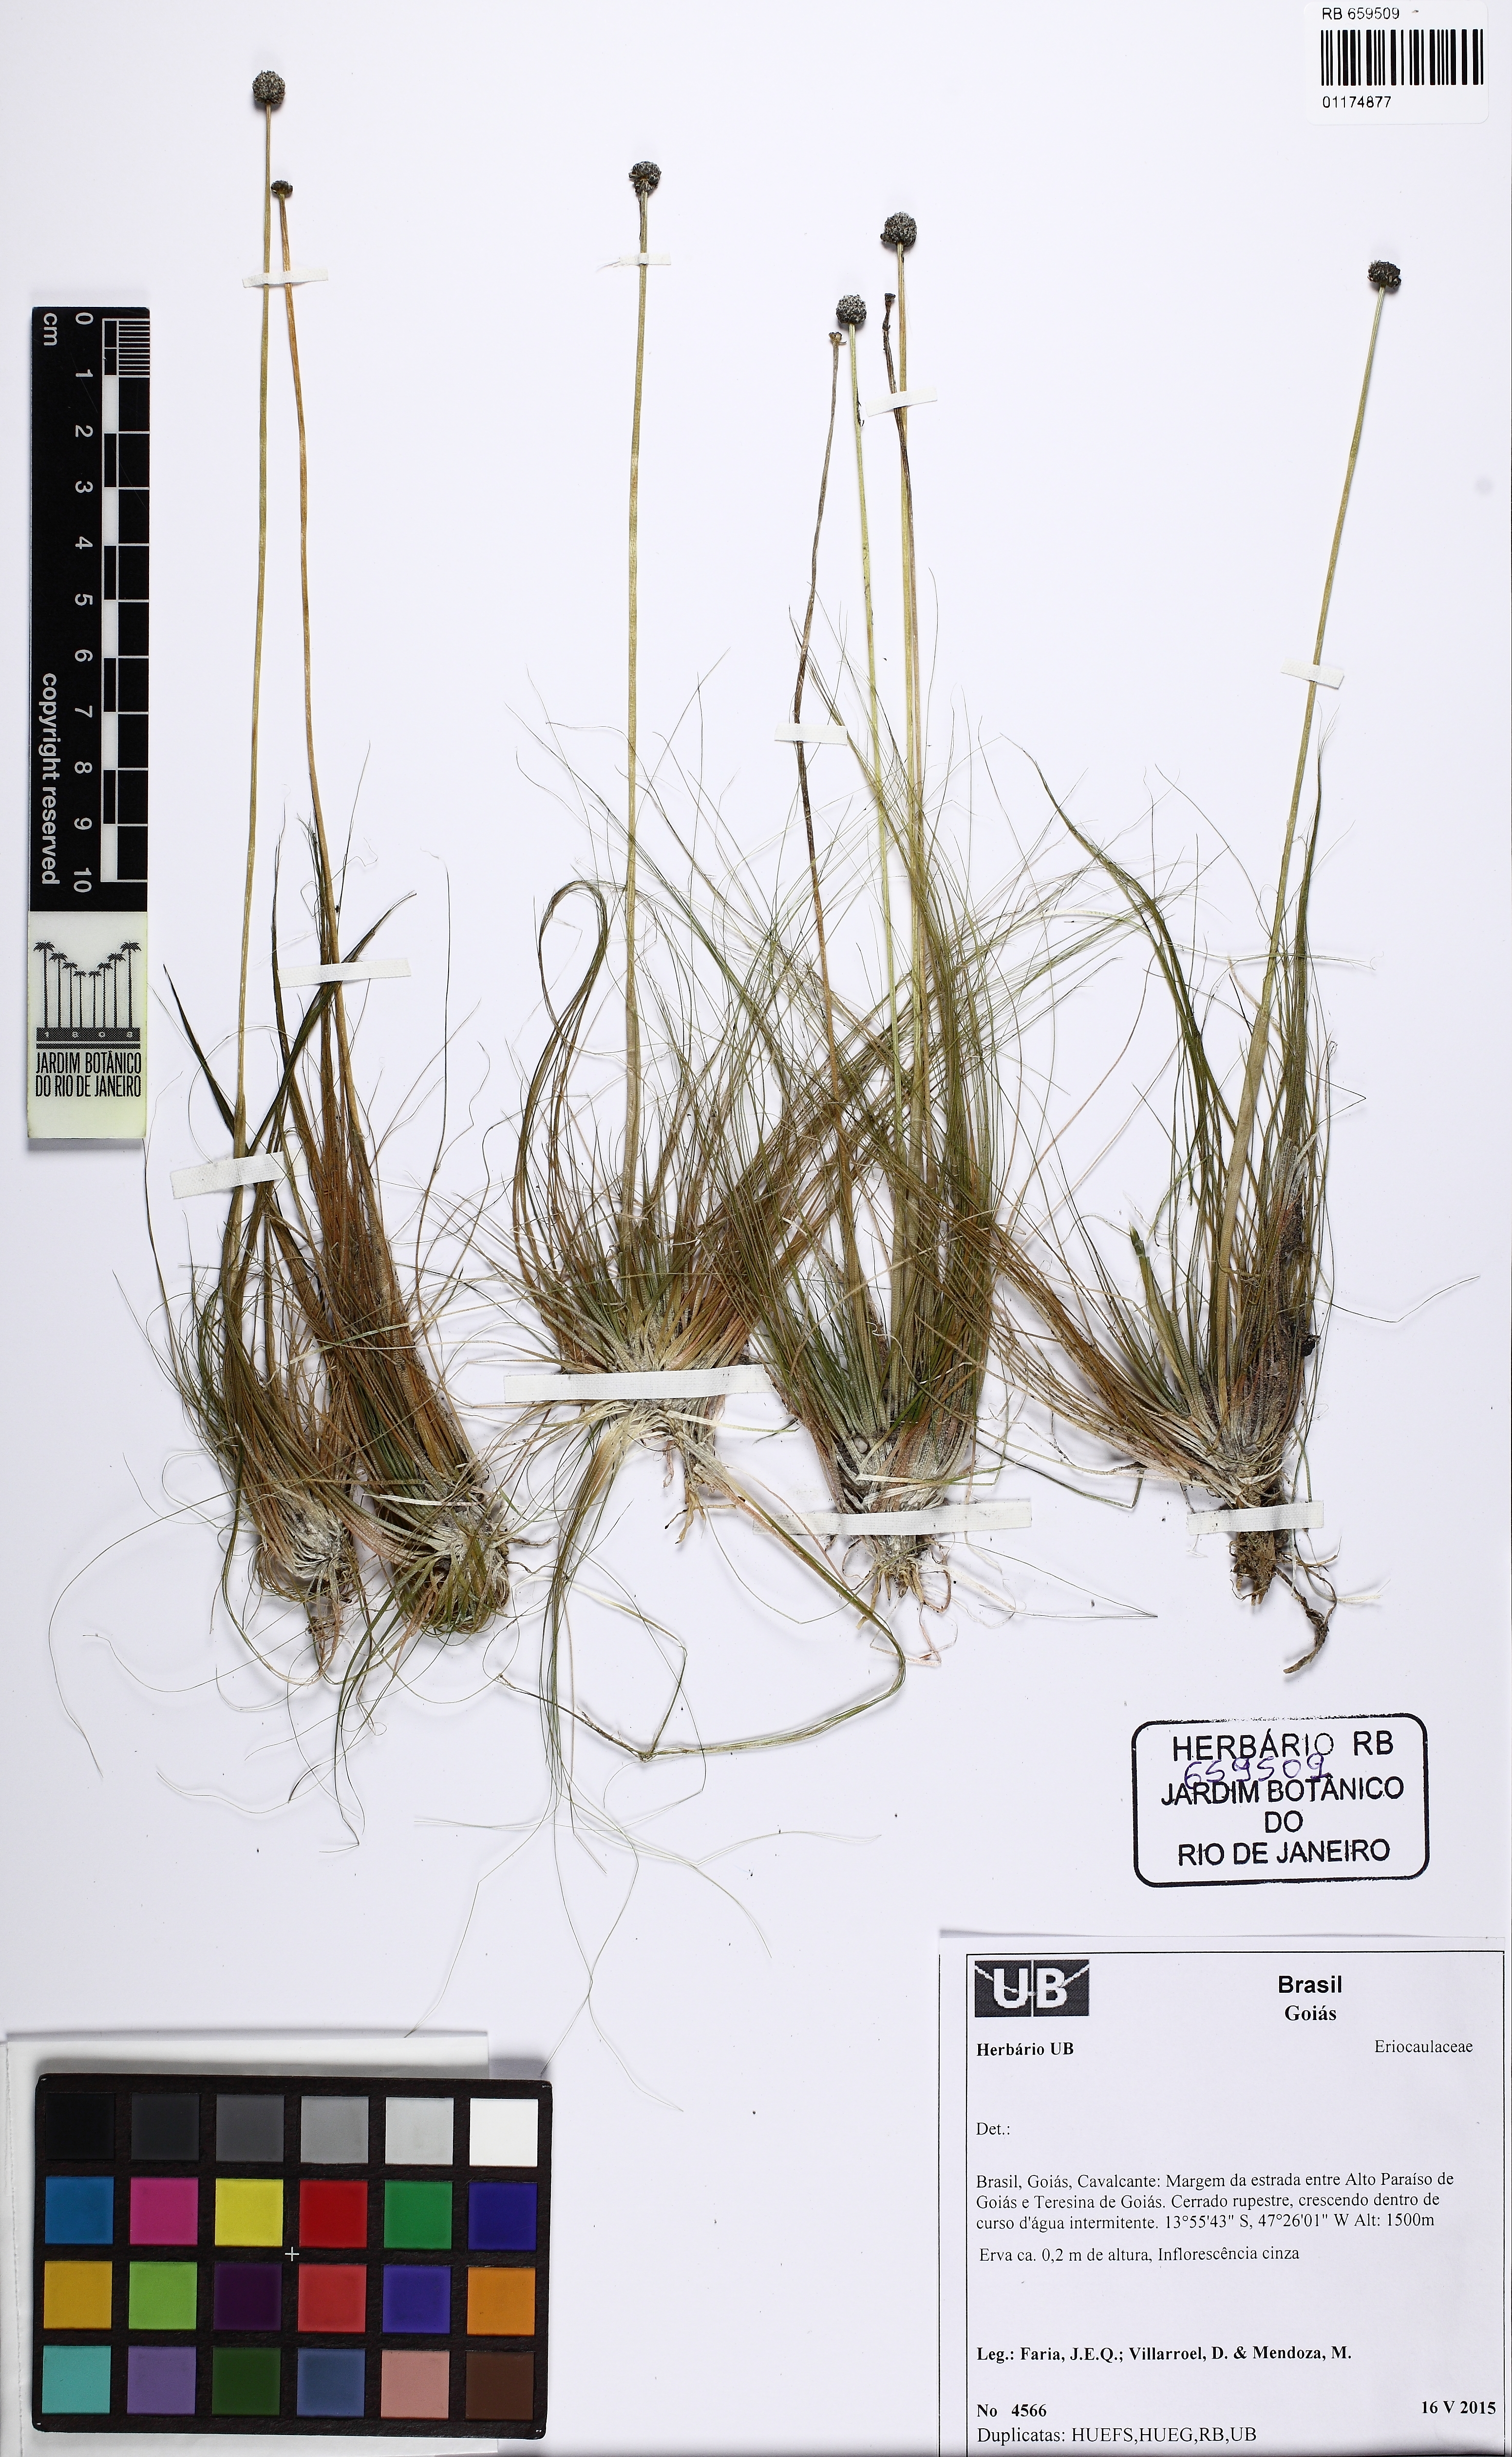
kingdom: Plantae
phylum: Tracheophyta
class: Liliopsida
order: Poales
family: Eriocaulaceae
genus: Eriocaulon
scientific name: Eriocaulon
